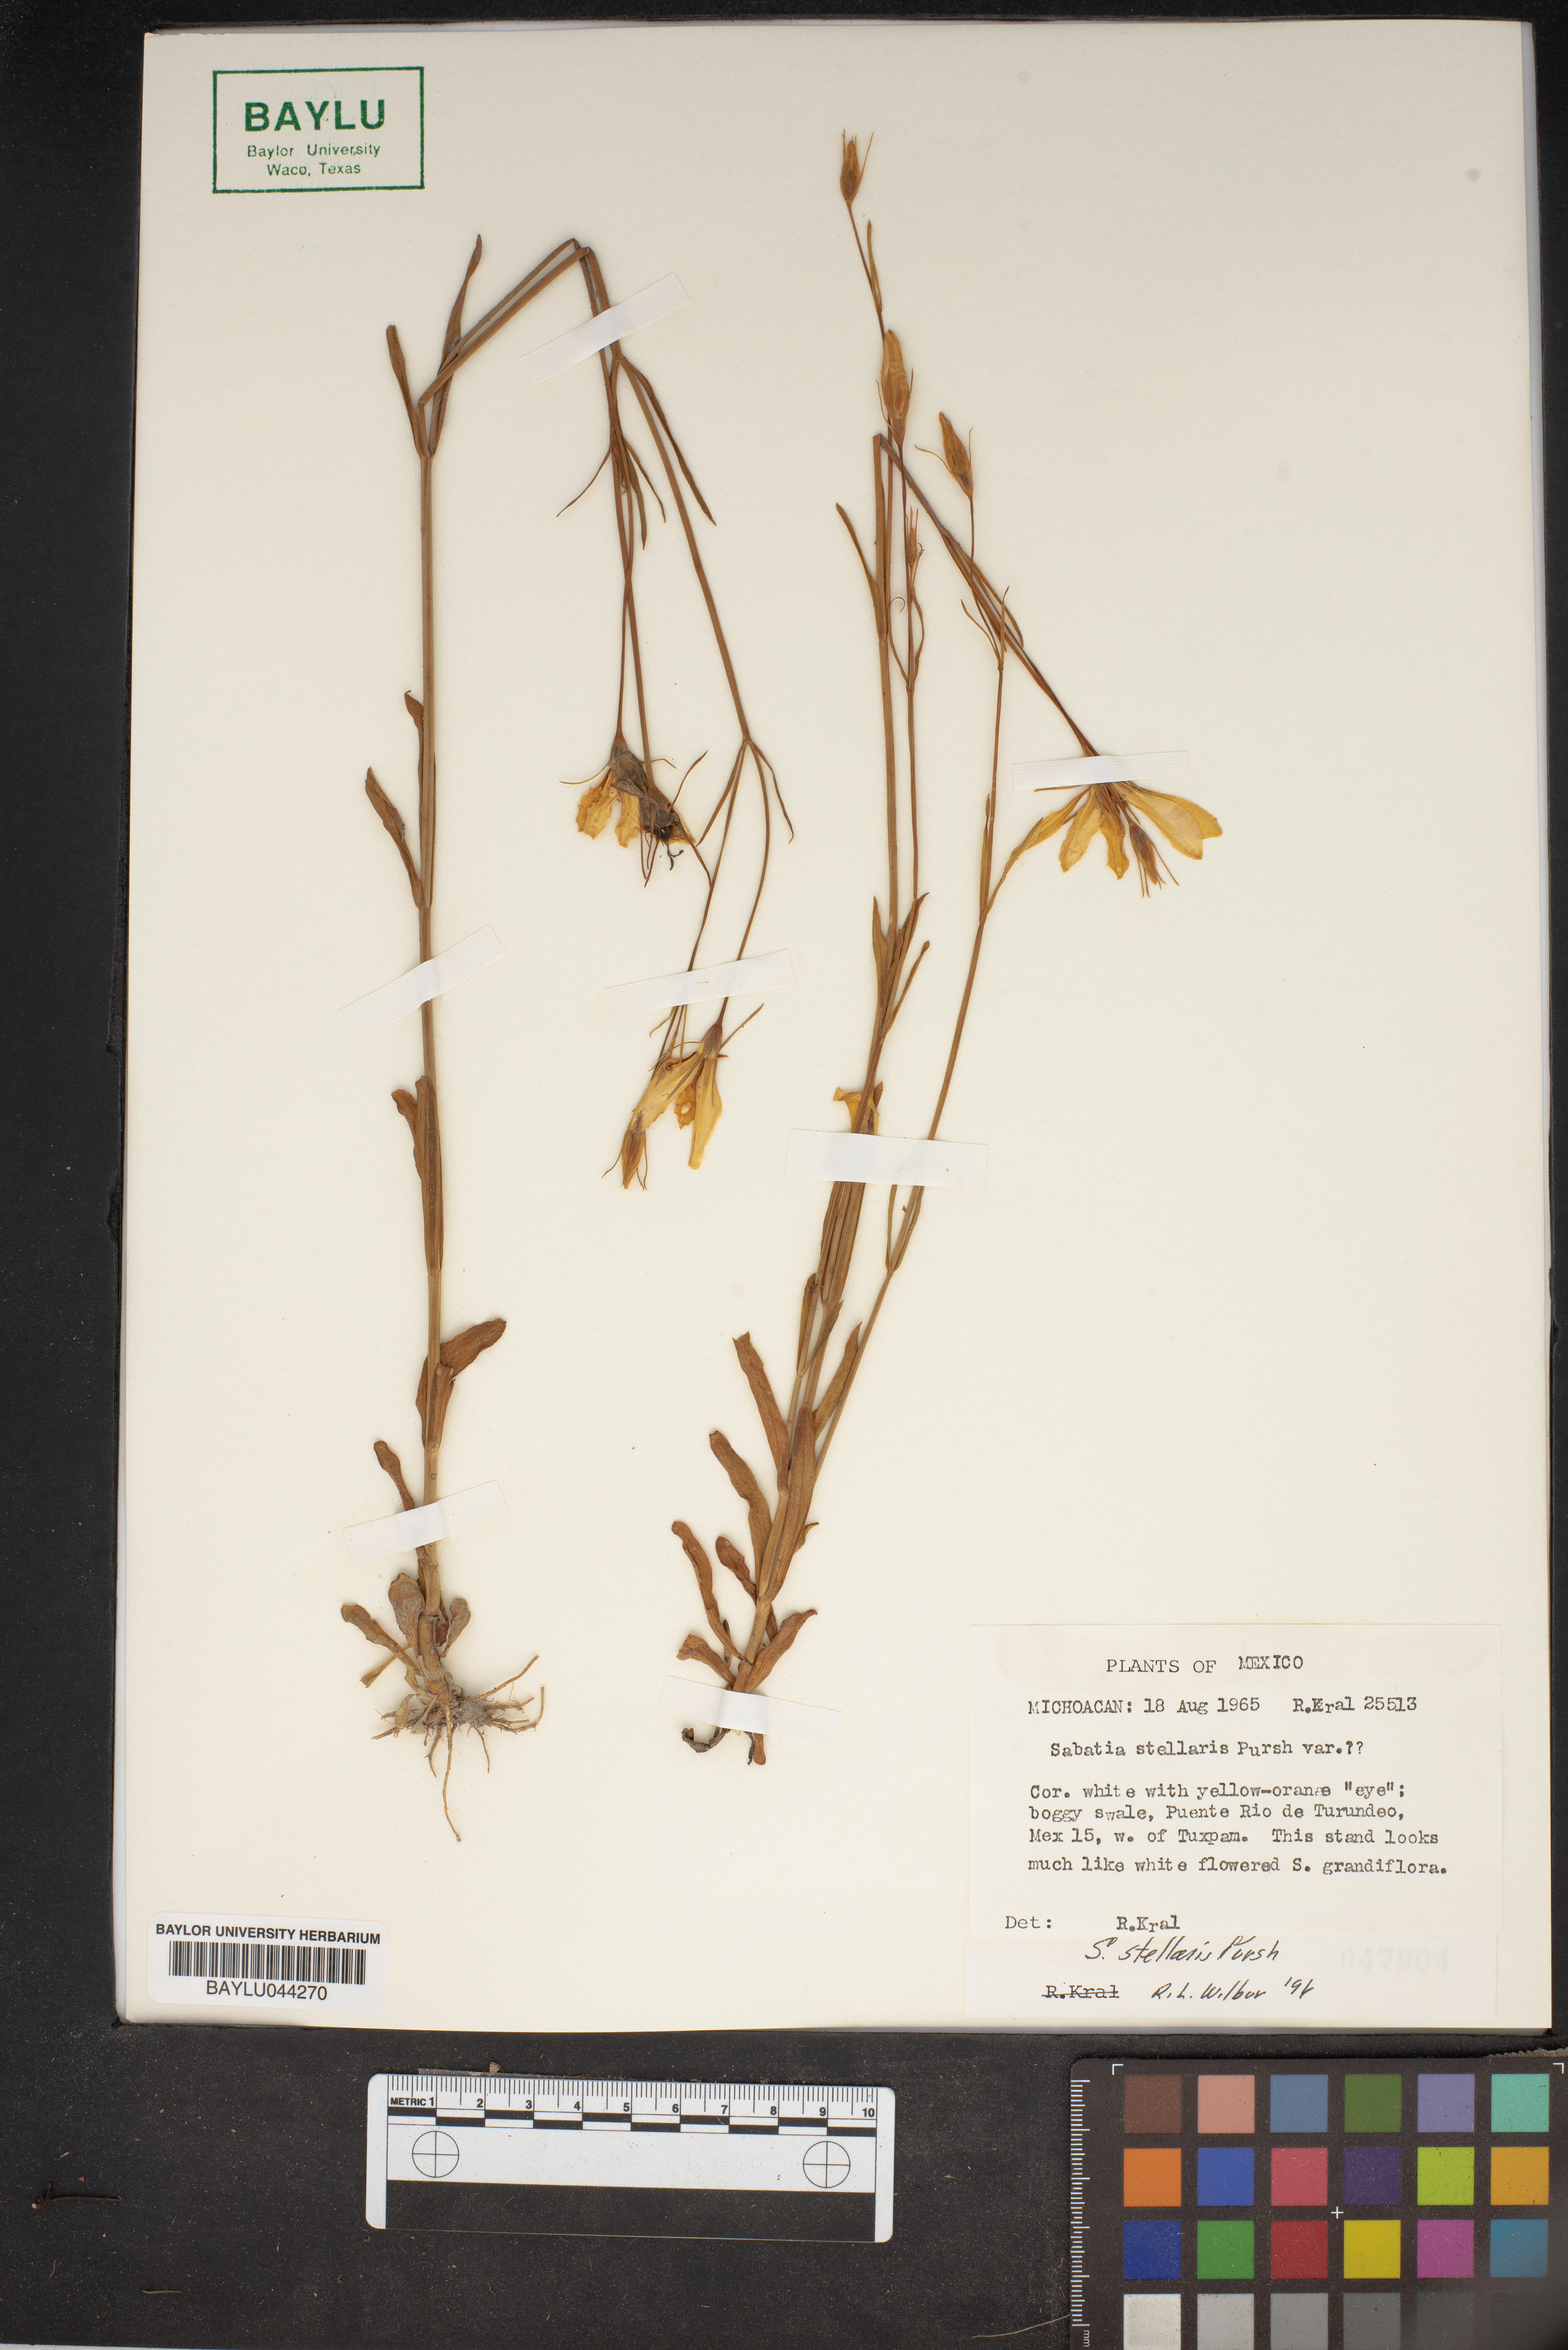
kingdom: Plantae
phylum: Tracheophyta
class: Magnoliopsida
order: Gentianales
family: Gentianaceae
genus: Sabatia
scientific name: Sabatia stellaris
